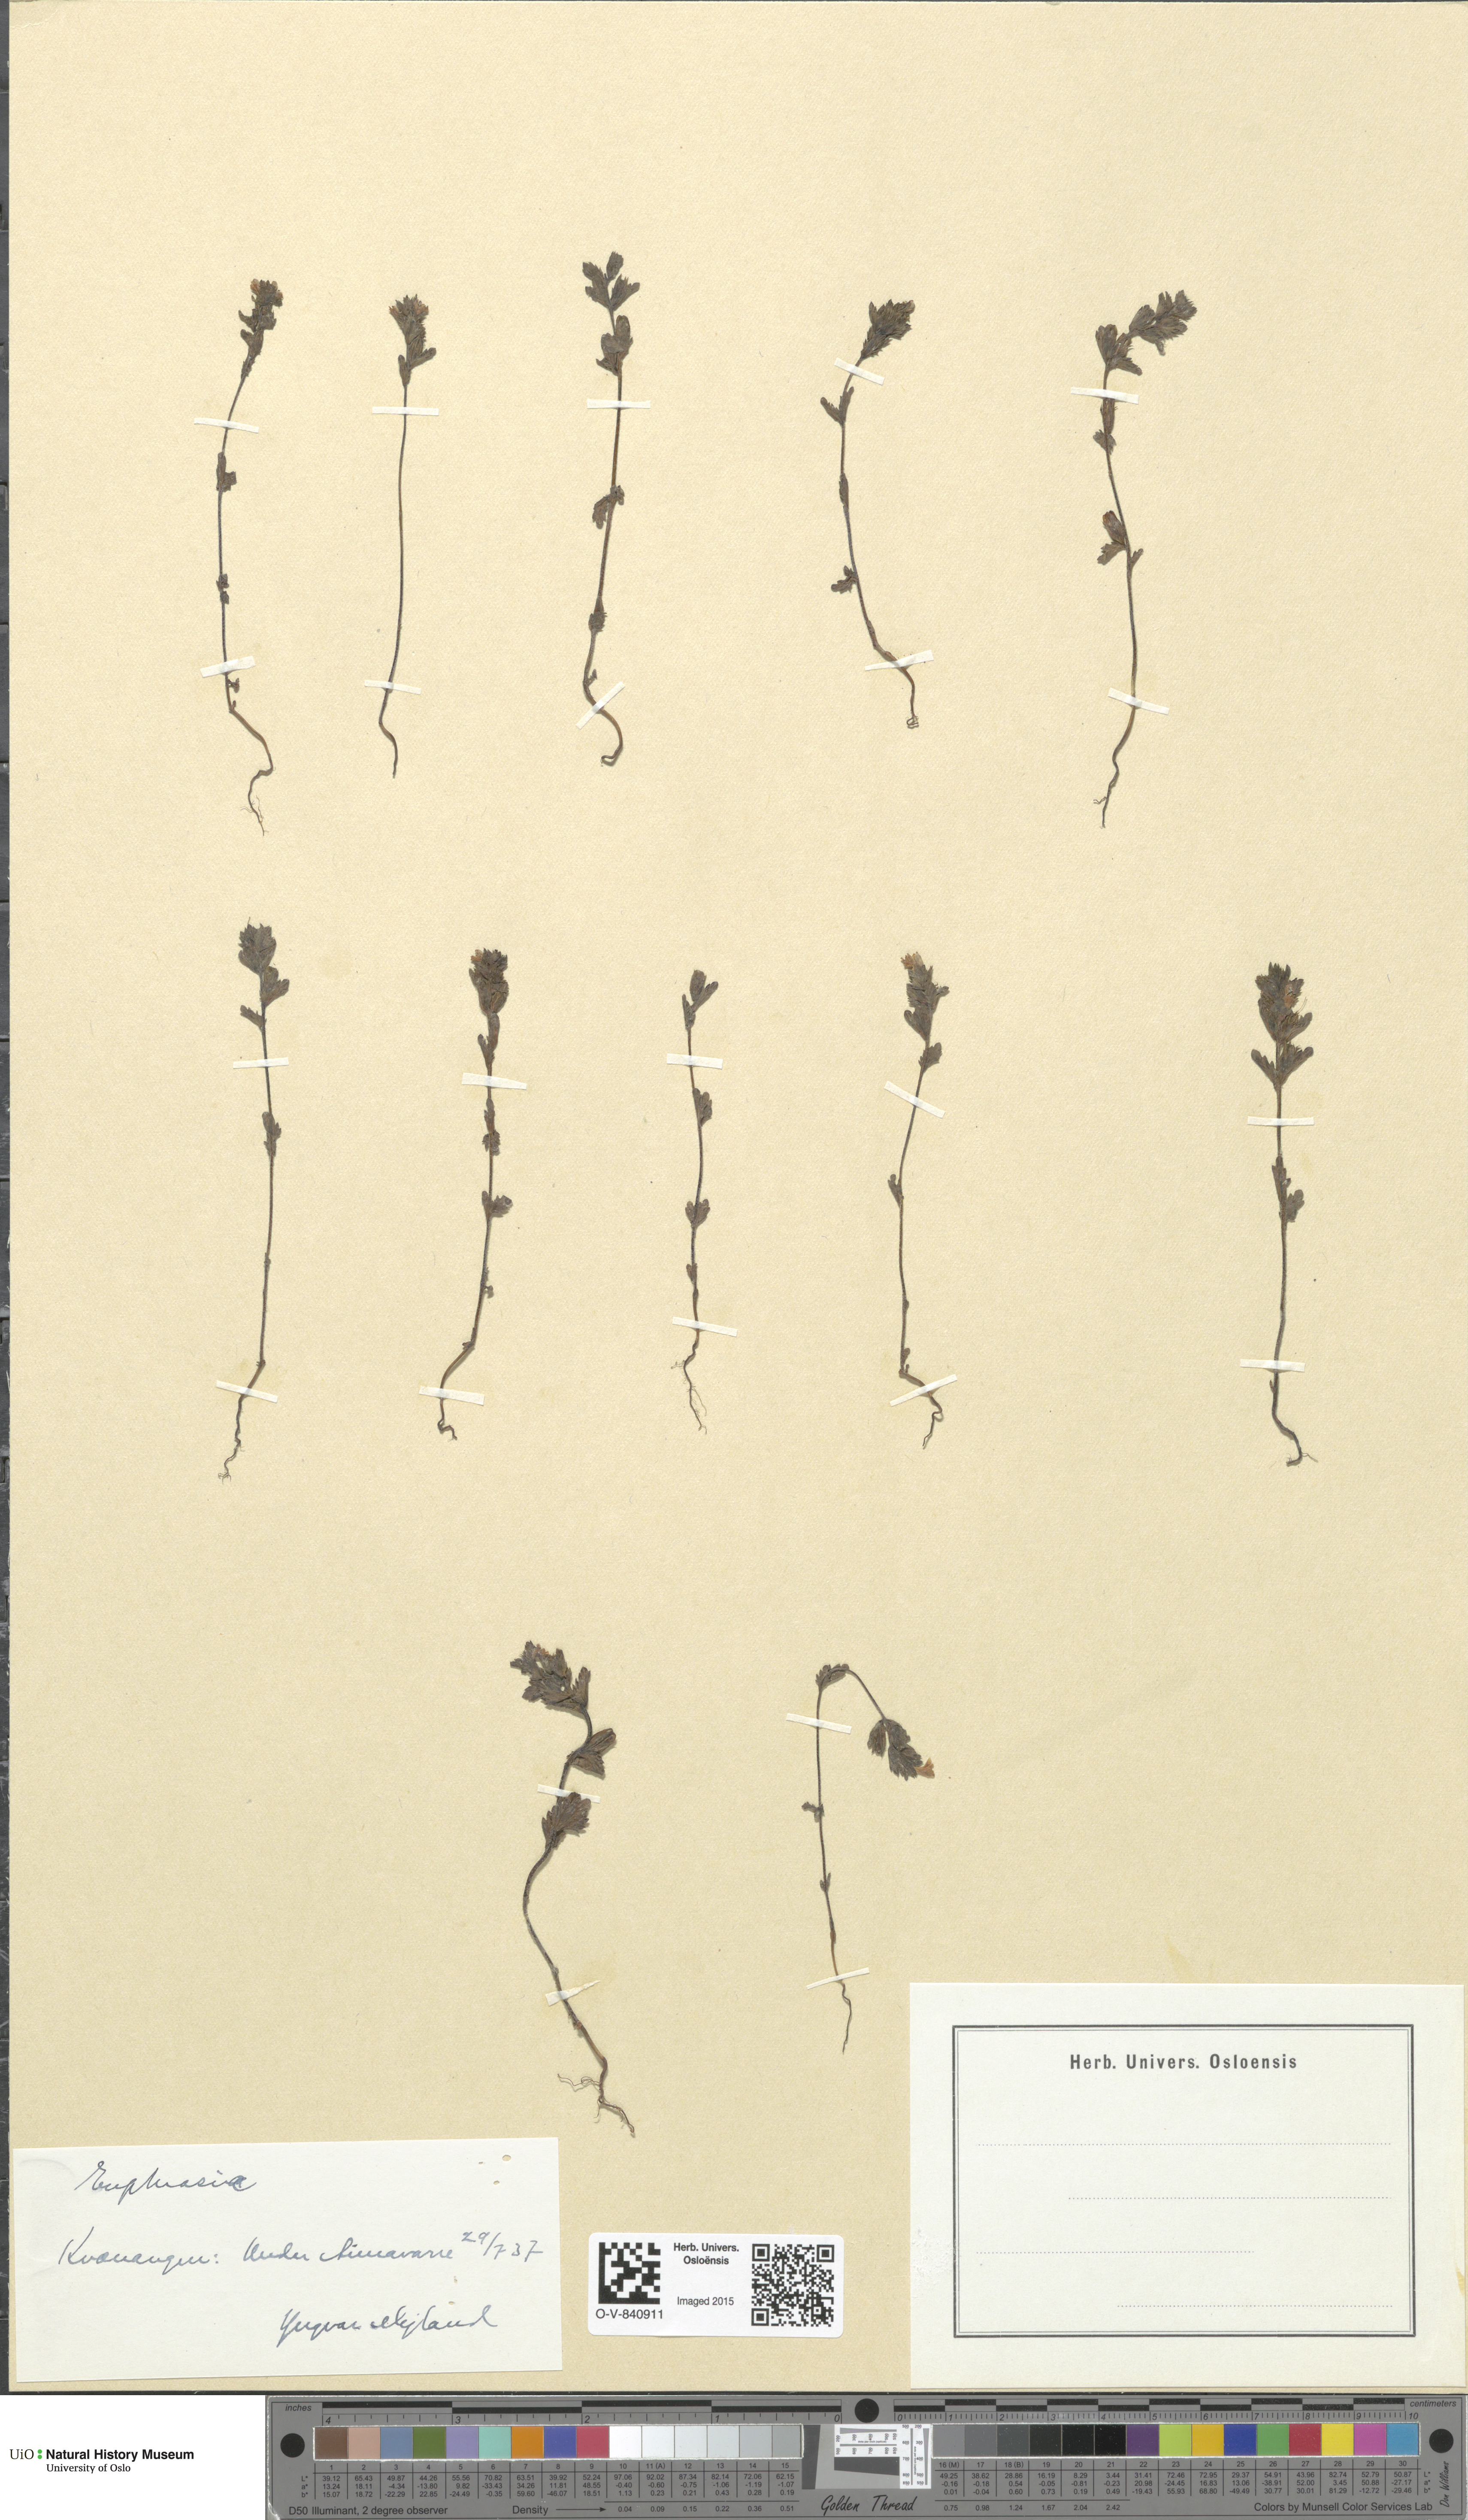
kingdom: Plantae
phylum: Tracheophyta
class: Magnoliopsida
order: Lamiales
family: Orobanchaceae
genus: Euphrasia
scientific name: Euphrasia
